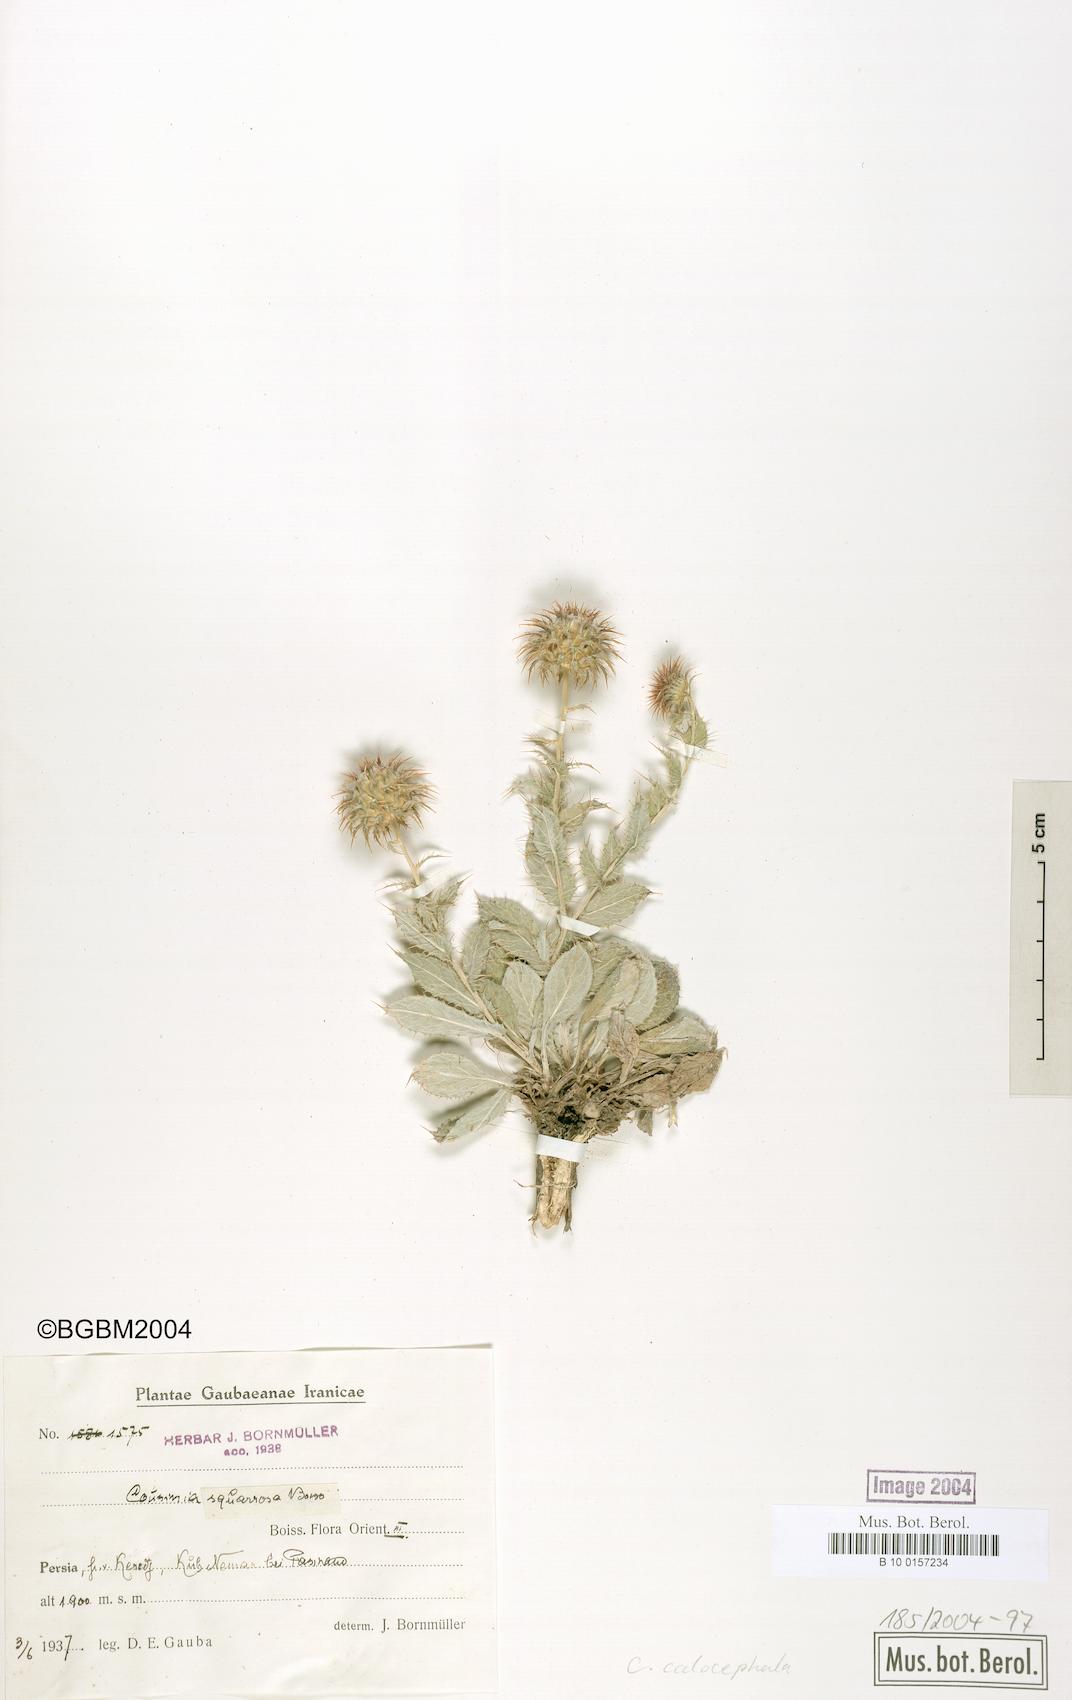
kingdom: Plantae
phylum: Tracheophyta
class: Magnoliopsida
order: Asterales
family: Asteraceae
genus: Cousinia
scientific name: Cousinia calocephala
